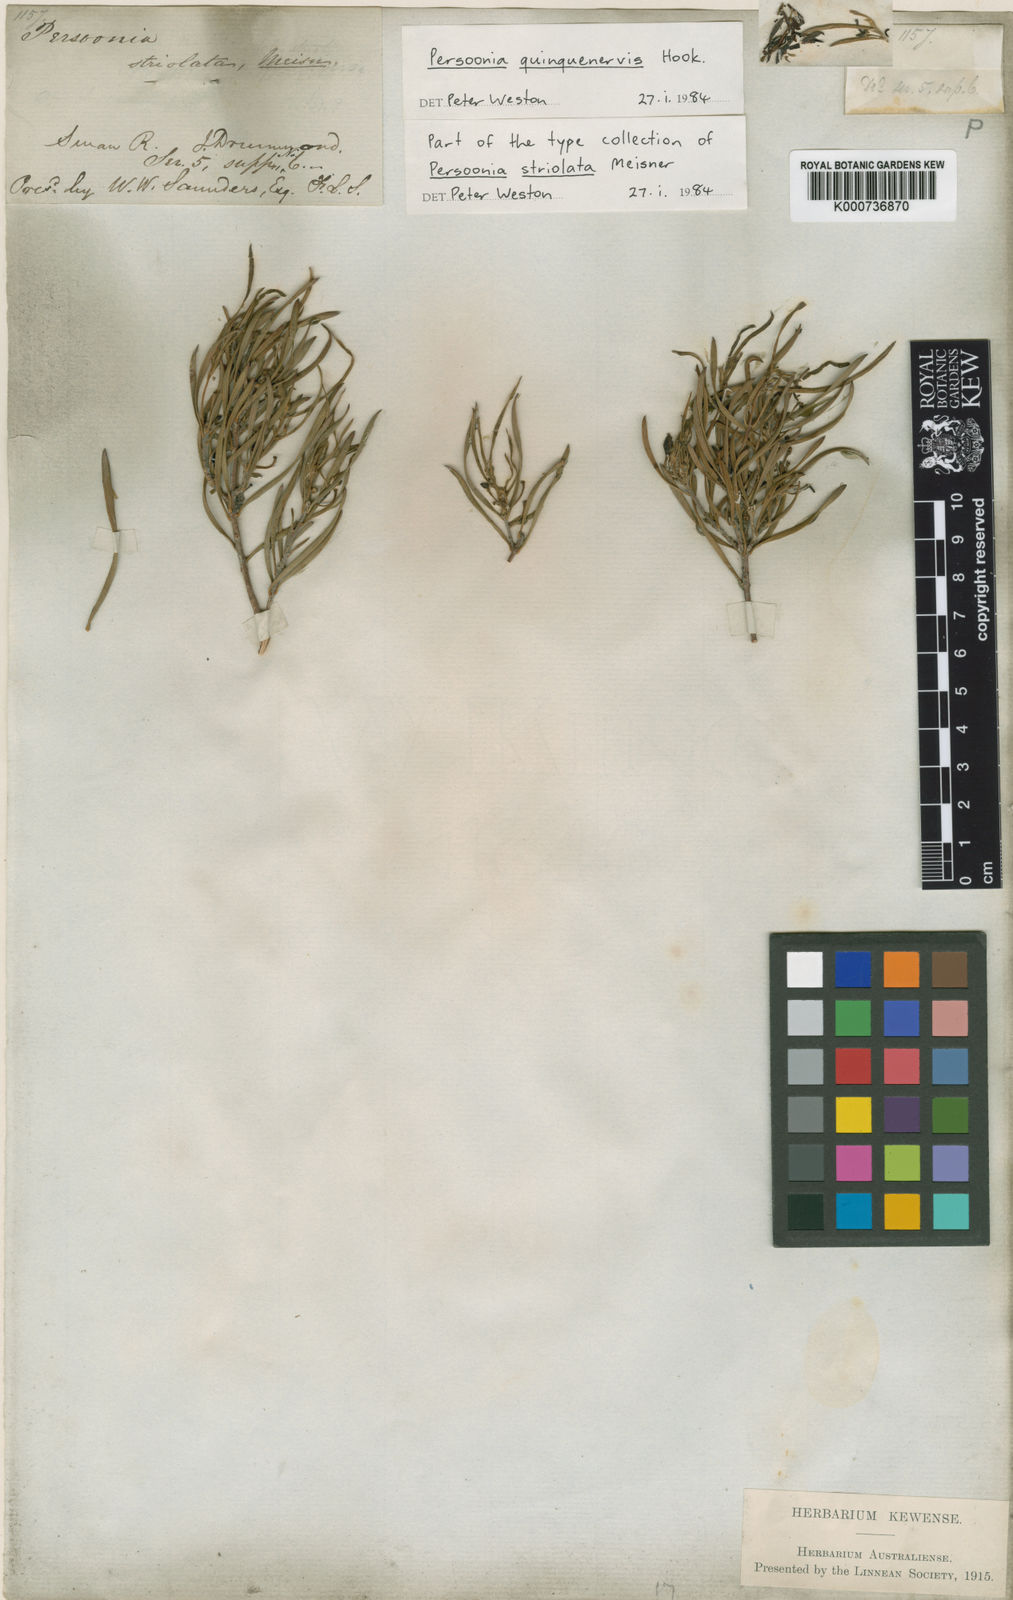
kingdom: Plantae
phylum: Tracheophyta
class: Magnoliopsida
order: Proteales
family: Proteaceae
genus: Persoonia
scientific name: Persoonia quinquenervis
